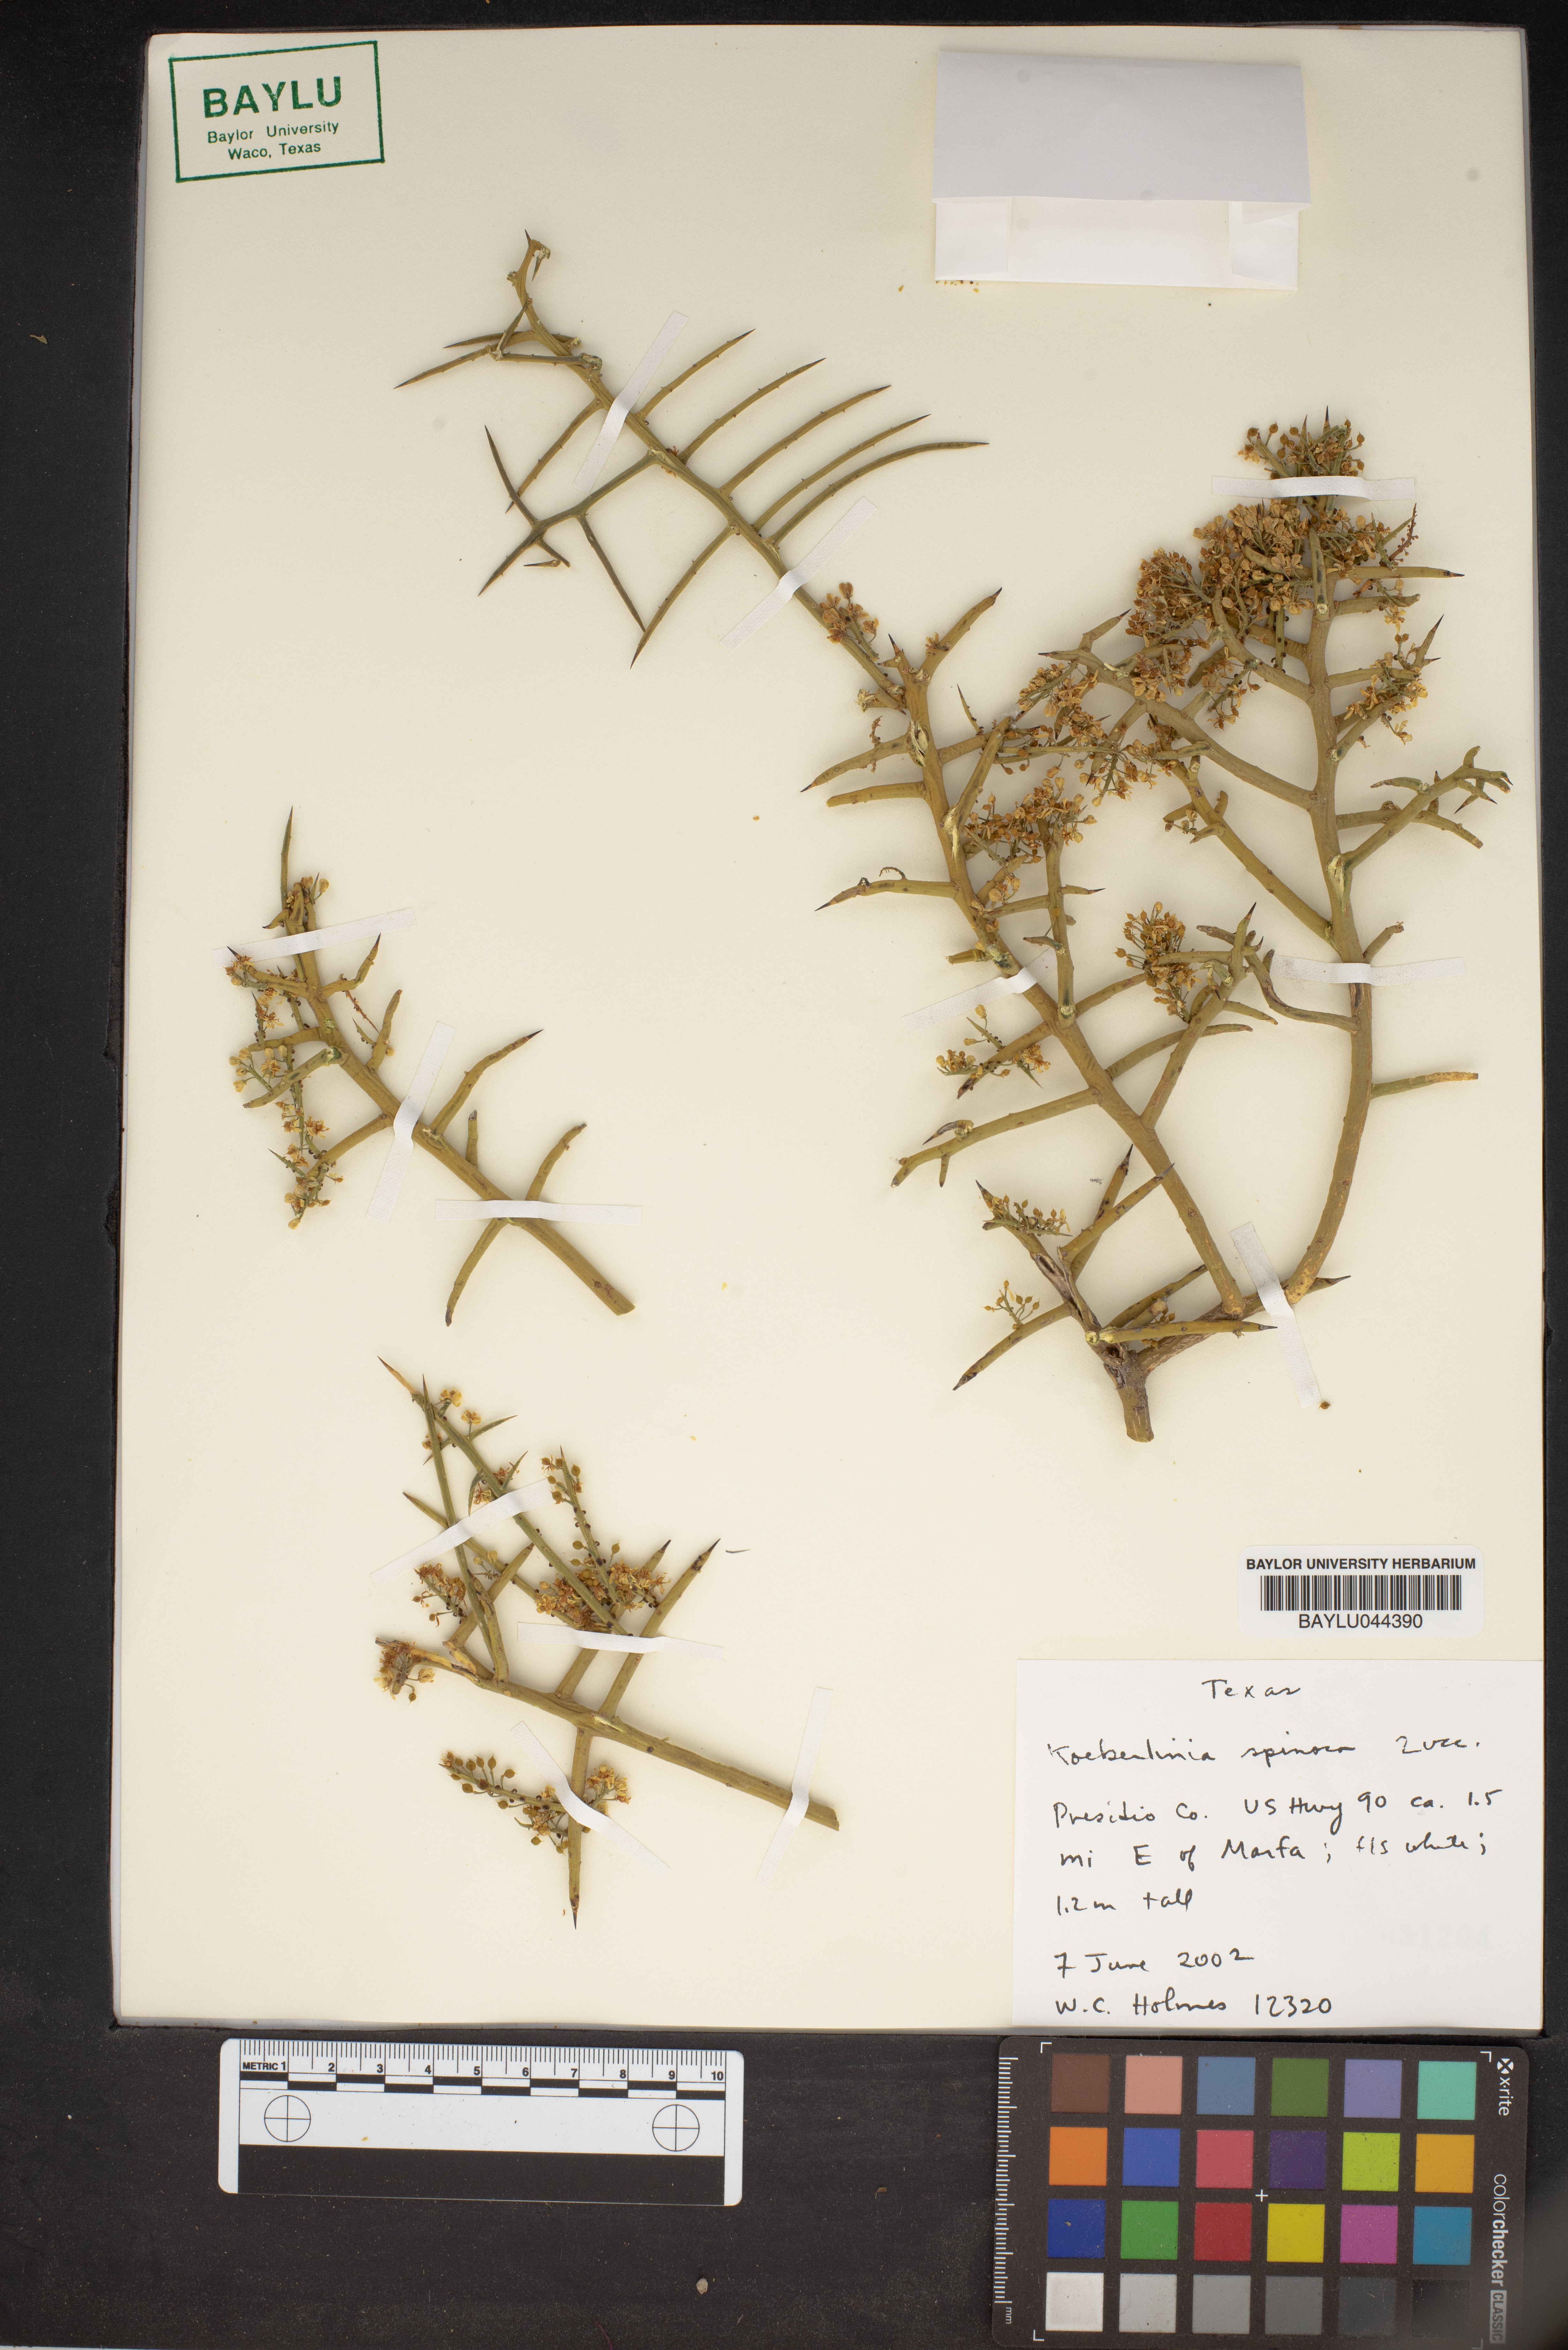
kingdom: Plantae
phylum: Tracheophyta
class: Magnoliopsida
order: Brassicales
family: Koeberliniaceae
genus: Koeberlinia
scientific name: Koeberlinia spinosa
